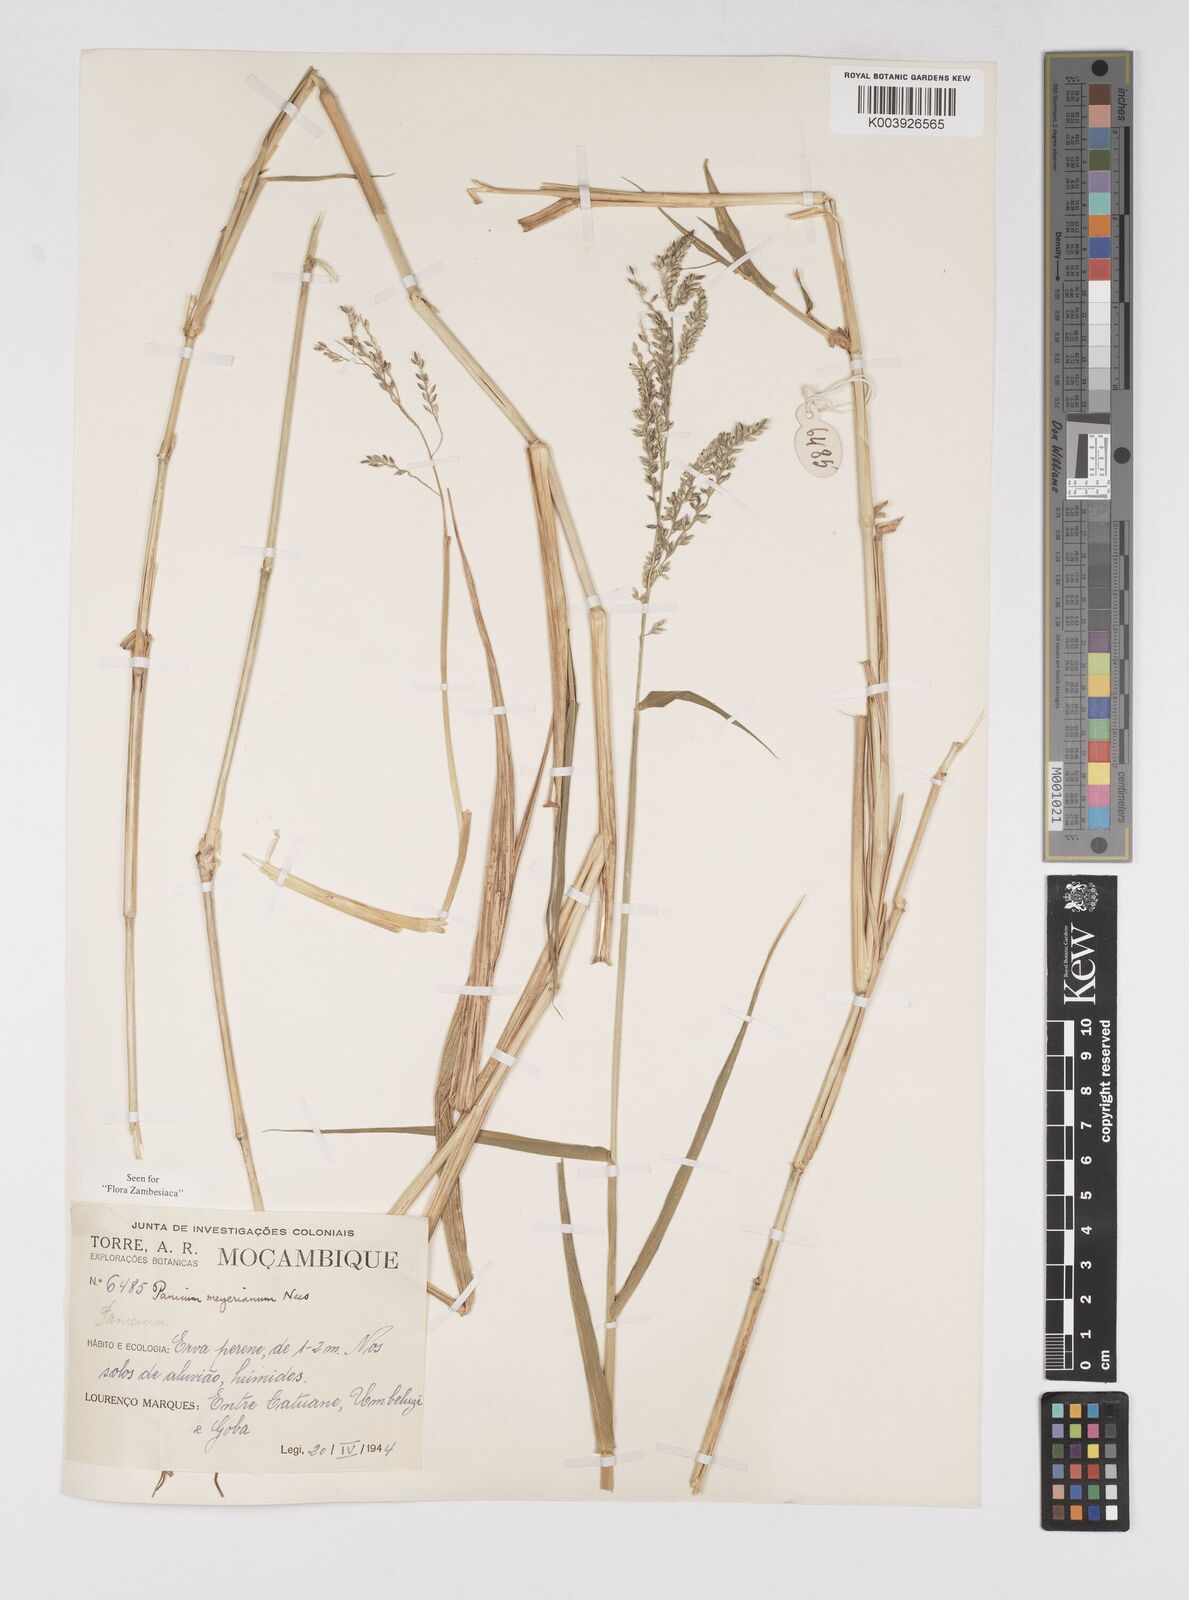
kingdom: Plantae
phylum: Tracheophyta
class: Liliopsida
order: Poales
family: Poaceae
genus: Eriochloa
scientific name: Eriochloa meyeriana
